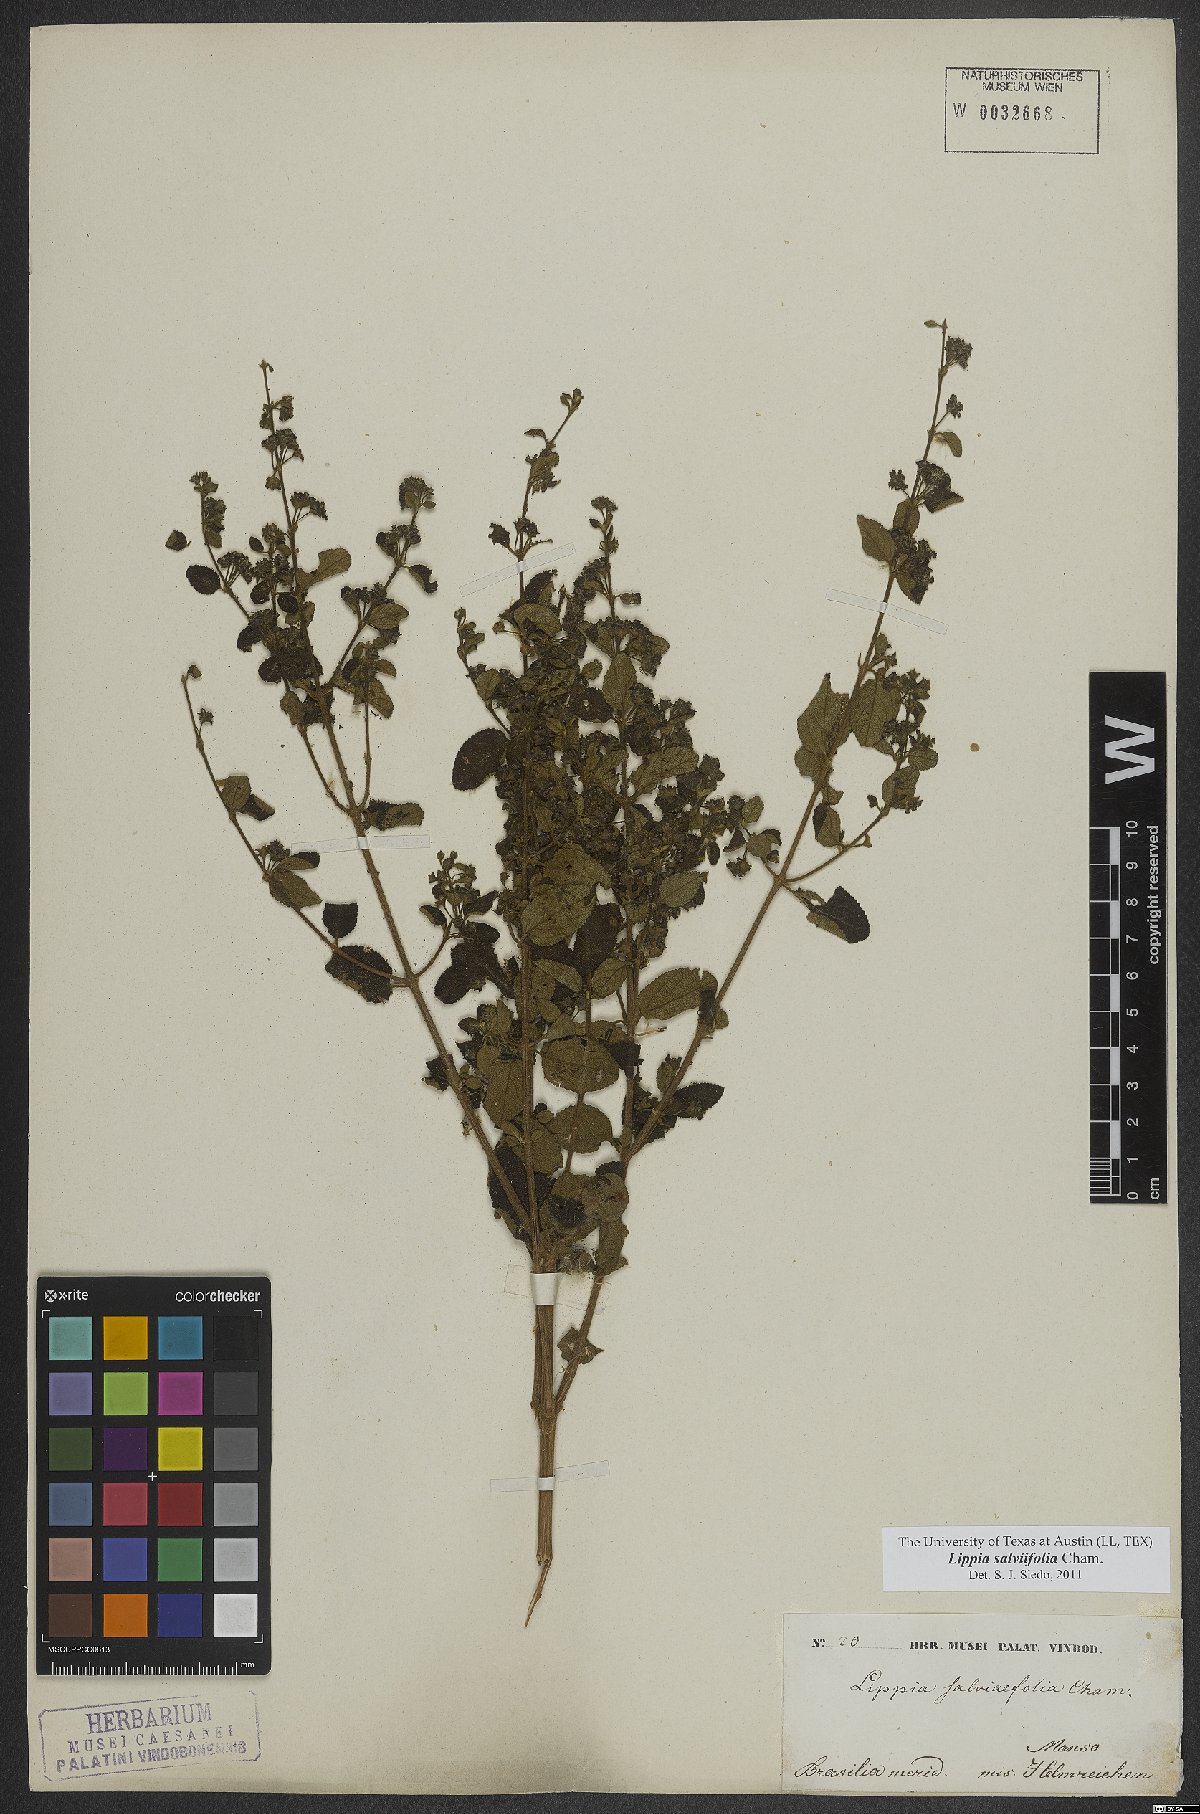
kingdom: Plantae
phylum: Tracheophyta
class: Magnoliopsida
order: Lamiales
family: Verbenaceae
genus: Lippia
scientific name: Lippia origanoides
